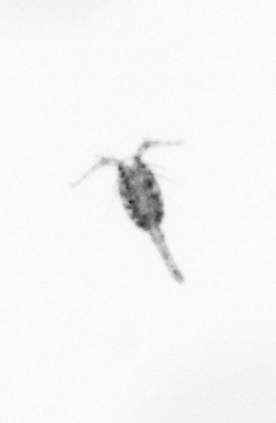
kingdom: Animalia
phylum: Arthropoda
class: Copepoda
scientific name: Copepoda
